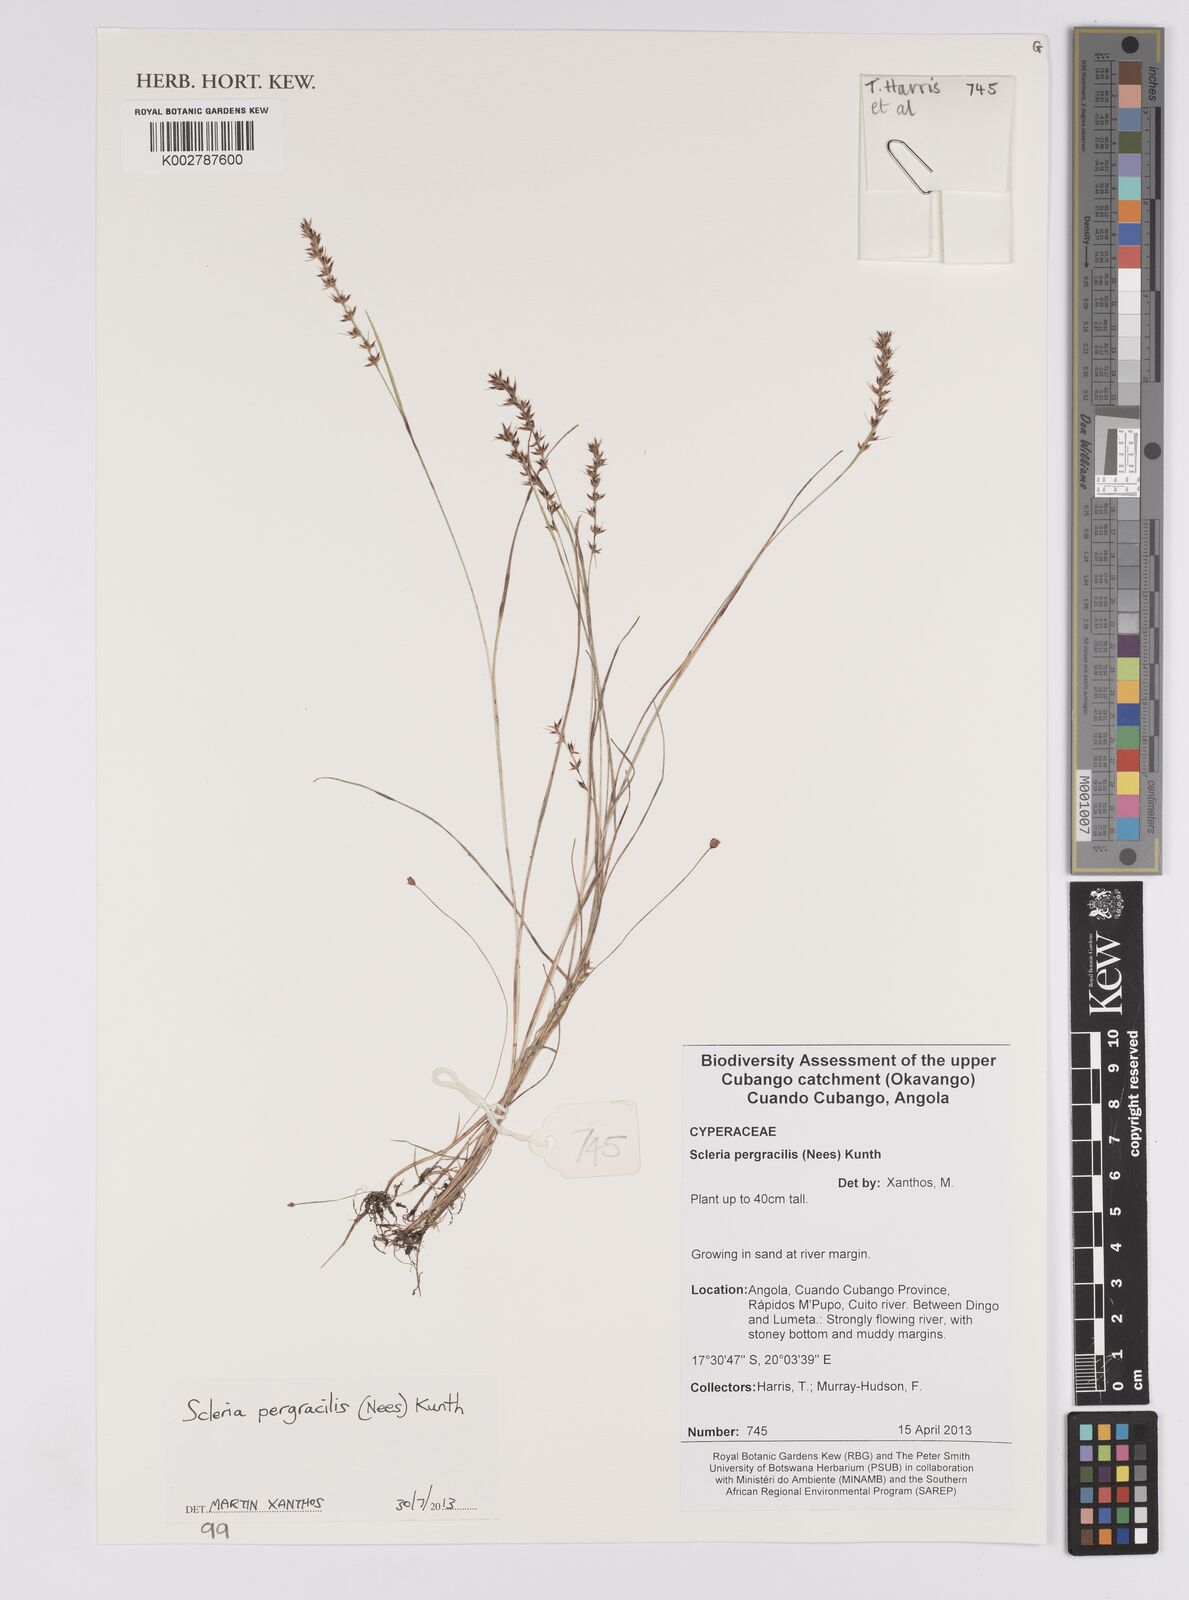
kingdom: Plantae
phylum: Tracheophyta
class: Liliopsida
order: Poales
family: Cyperaceae
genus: Scleria
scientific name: Scleria pergracilis
